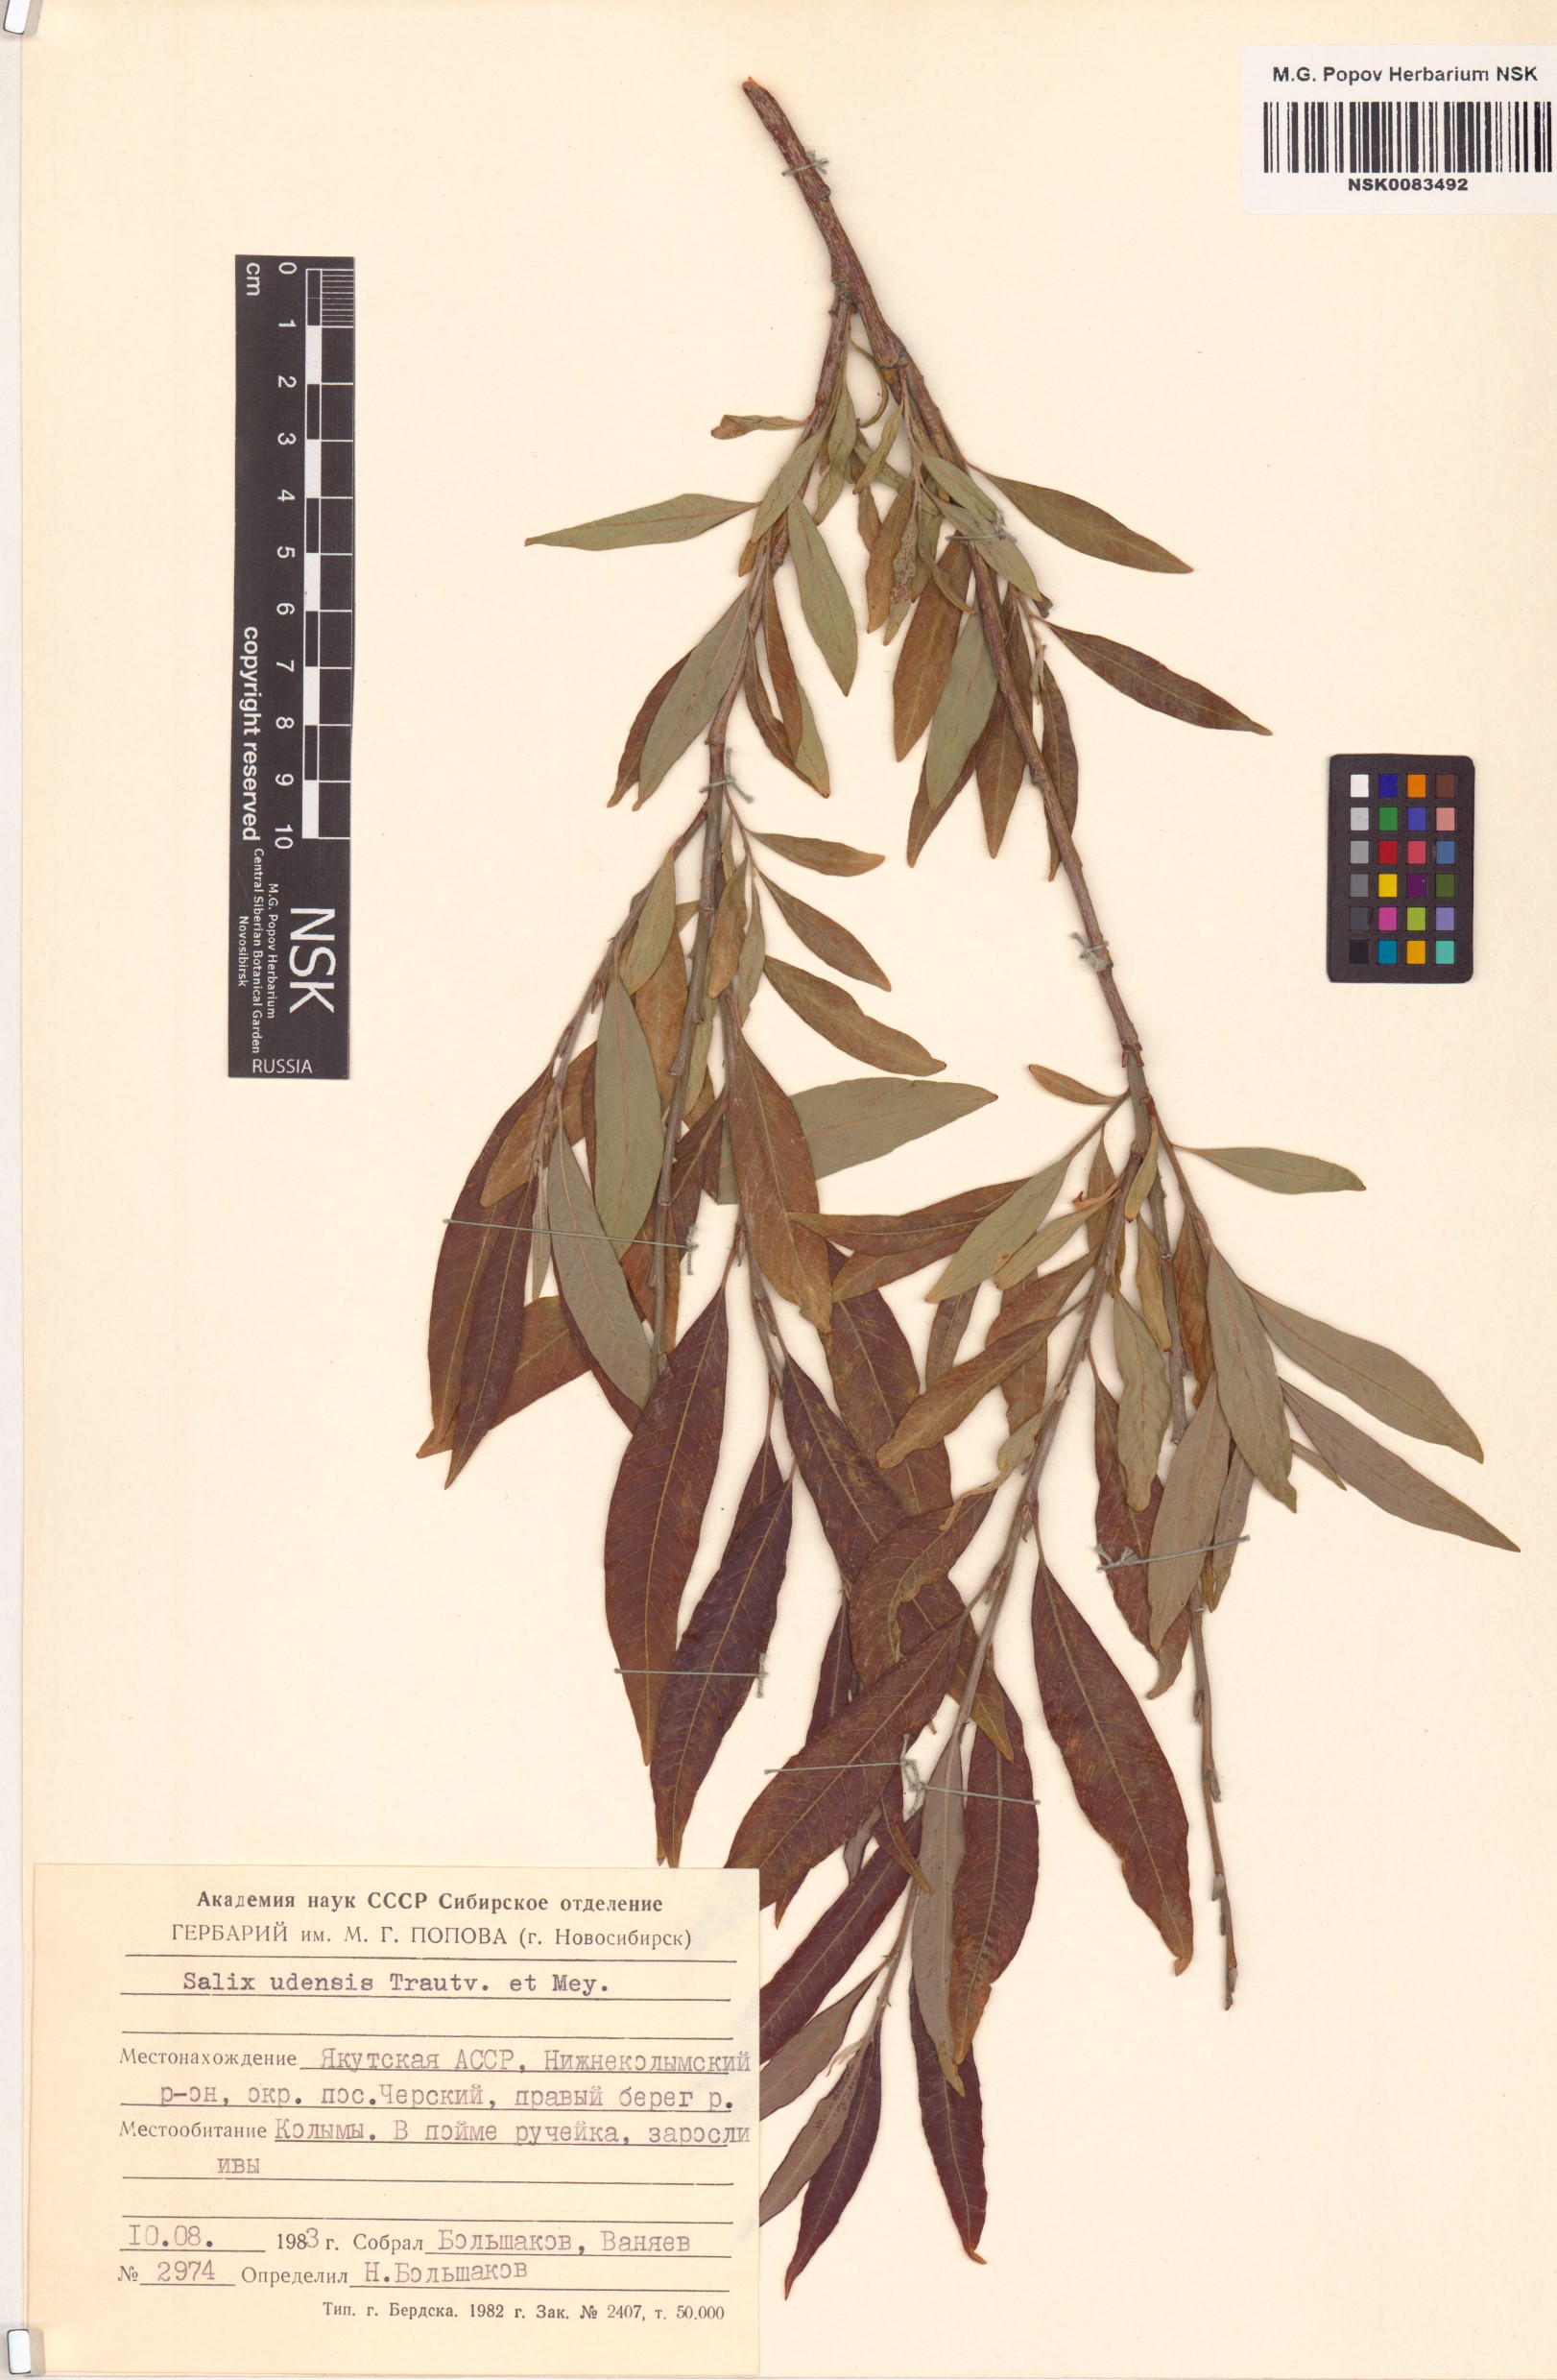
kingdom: Plantae
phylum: Tracheophyta
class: Magnoliopsida
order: Malpighiales
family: Salicaceae
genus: Salix
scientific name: Salix udensis
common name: Sachalin willow
